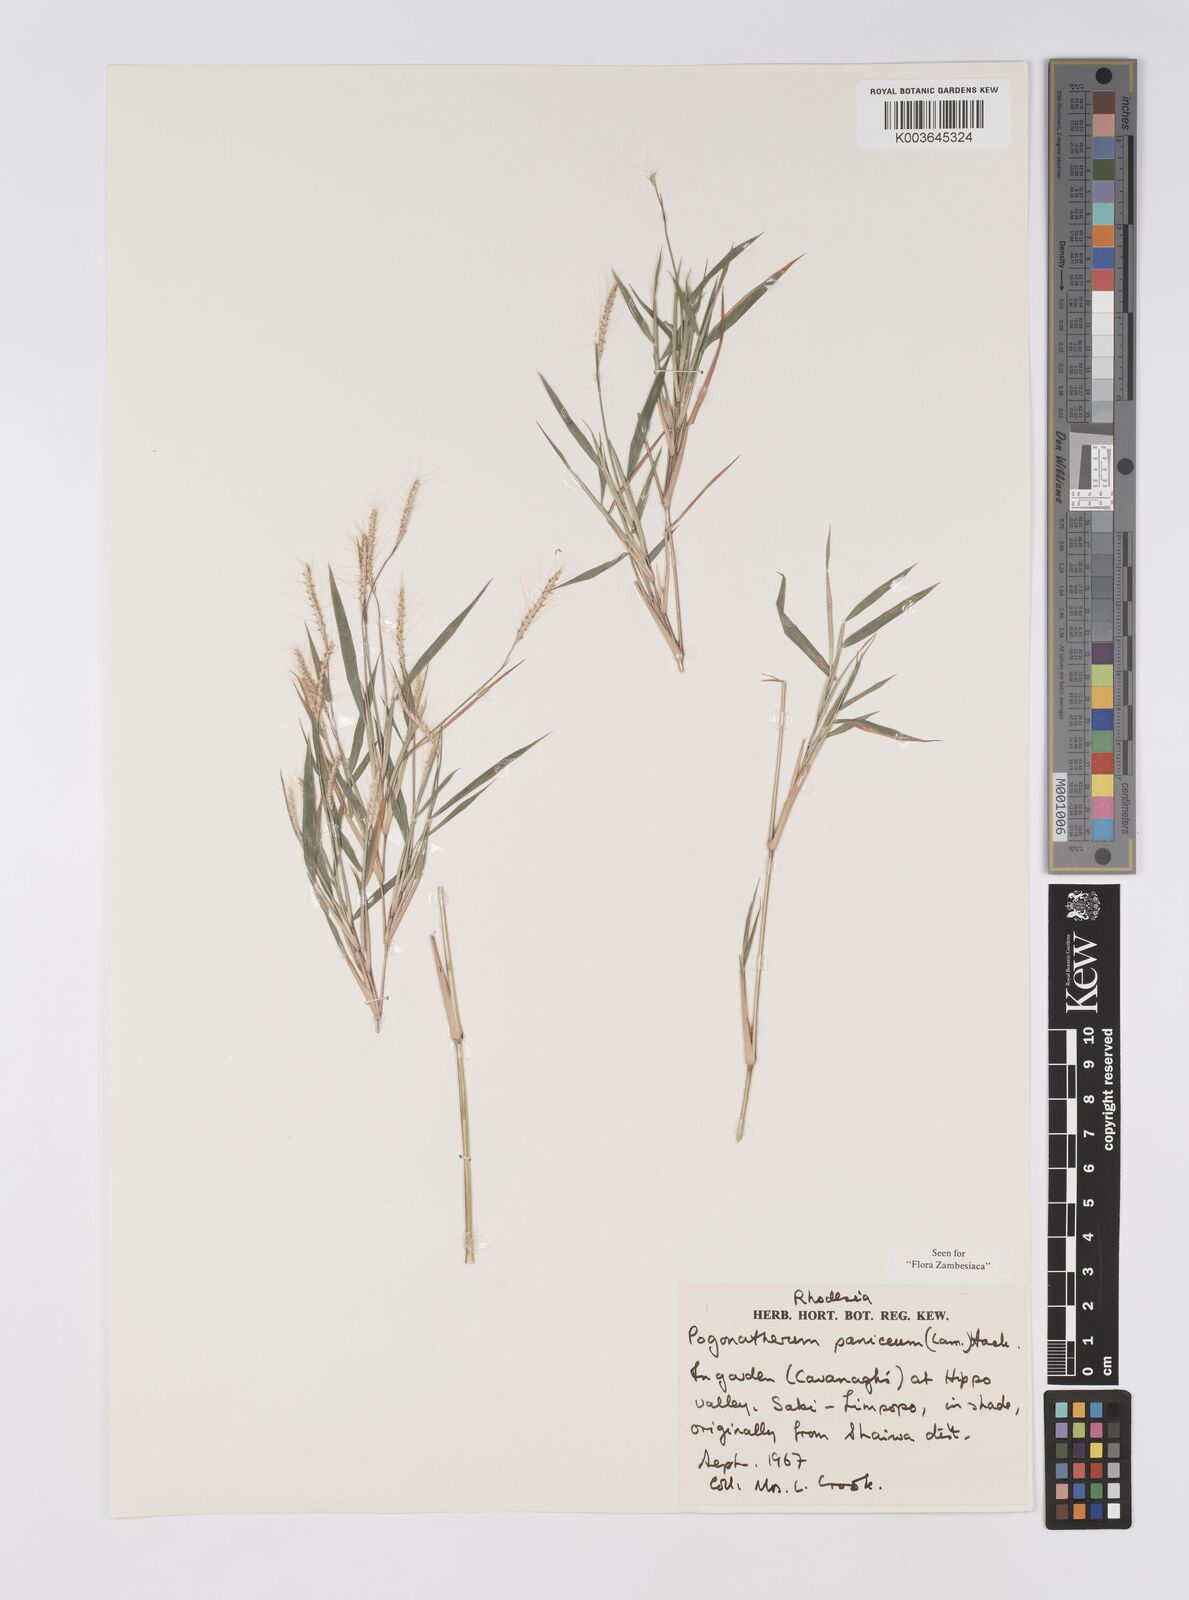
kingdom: Plantae
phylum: Tracheophyta
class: Liliopsida
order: Poales
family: Poaceae
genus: Pogonatherum
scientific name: Pogonatherum paniceum
